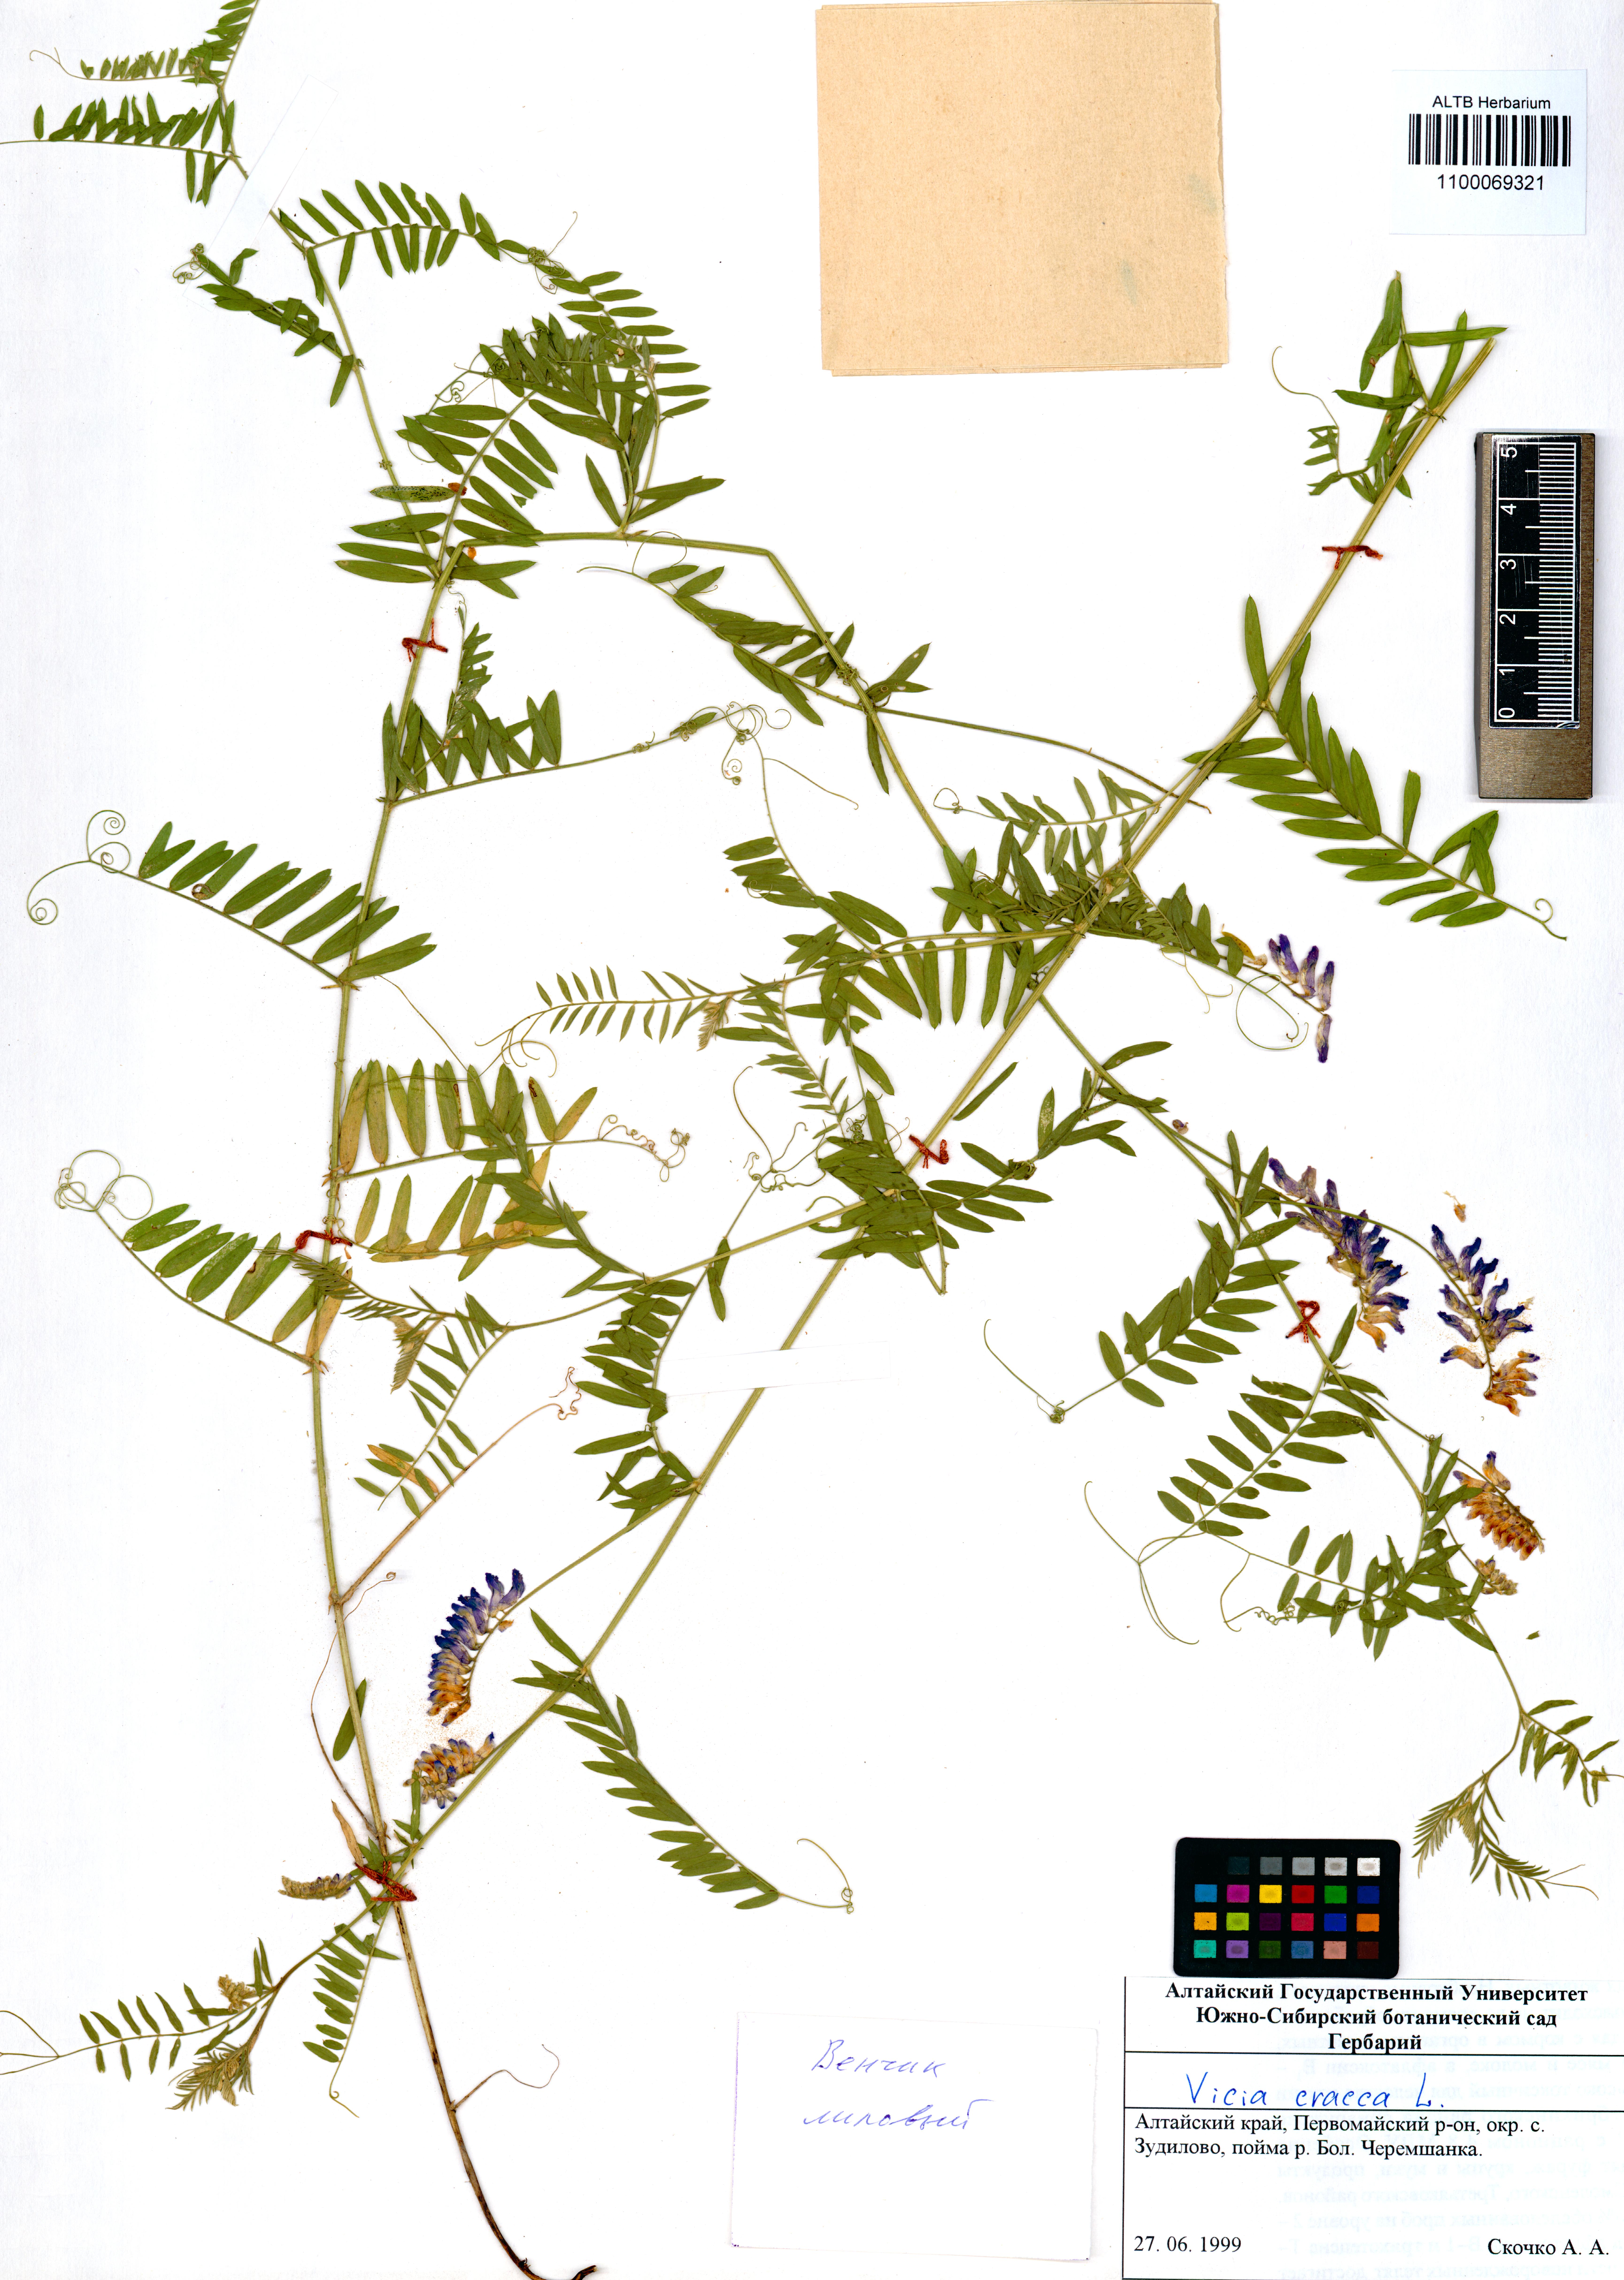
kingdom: Plantae
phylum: Tracheophyta
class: Magnoliopsida
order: Fabales
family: Fabaceae
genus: Vicia
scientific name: Vicia cracca
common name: Bird vetch
